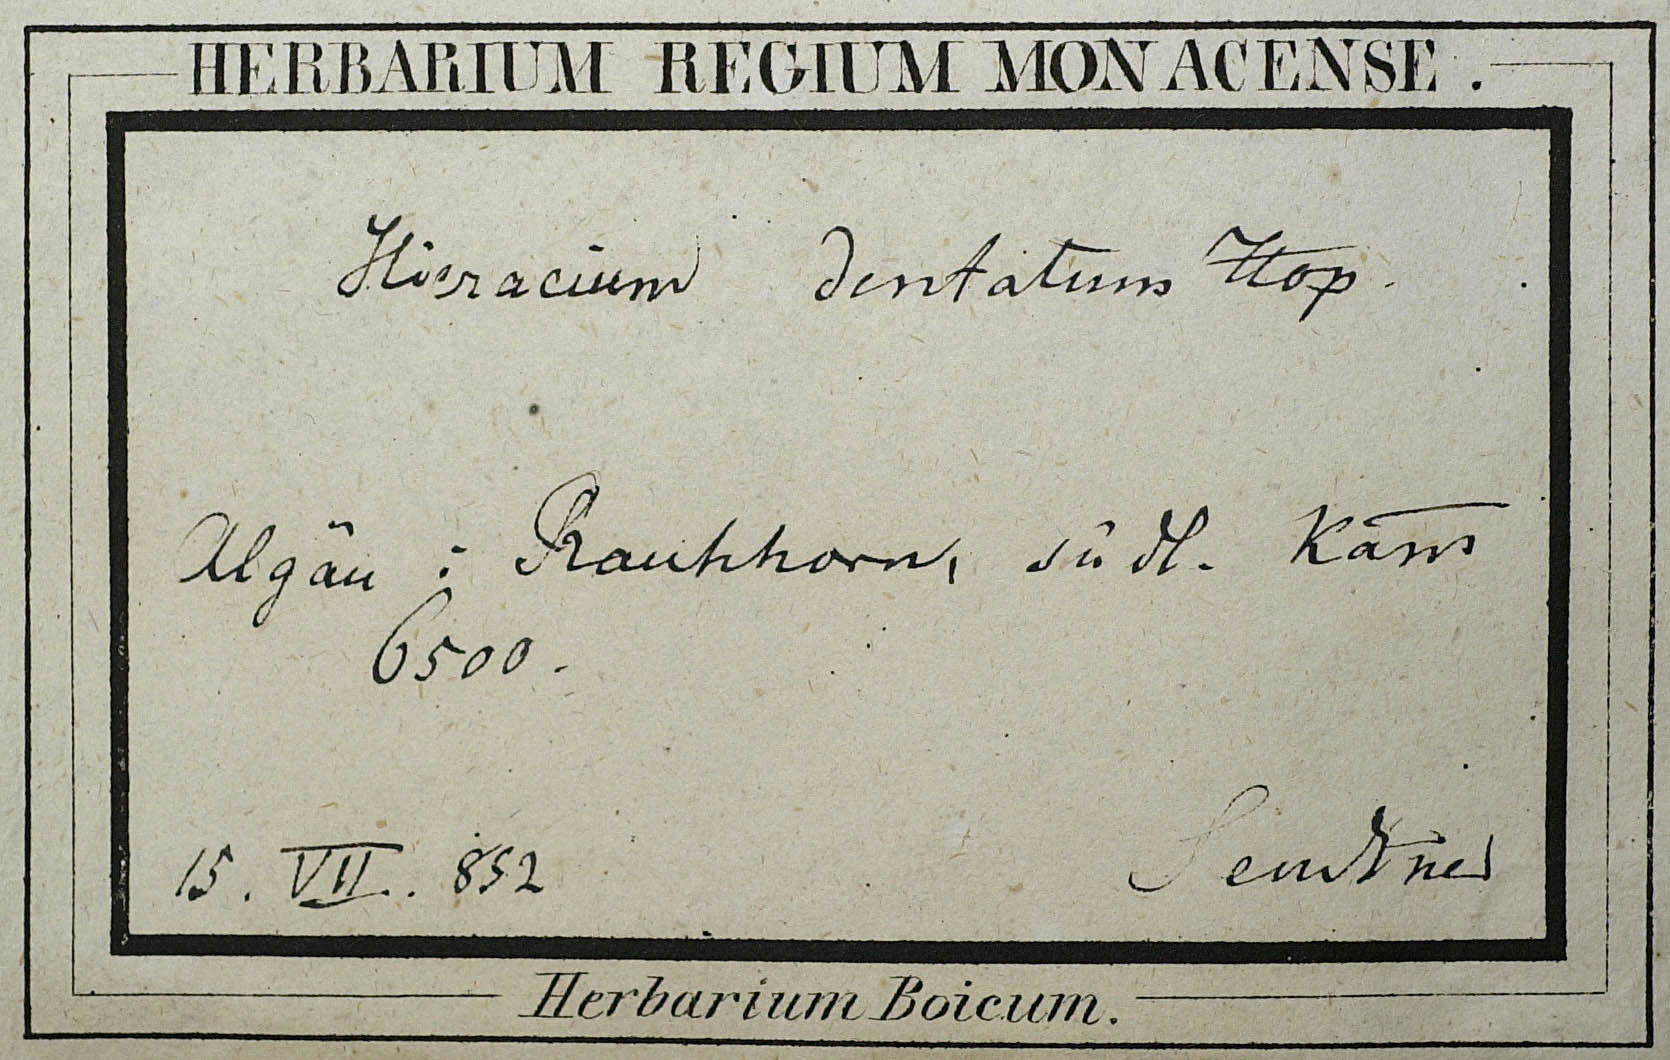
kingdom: Plantae
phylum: Tracheophyta
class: Magnoliopsida
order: Asterales
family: Asteraceae
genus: Hieracium
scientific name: Hieracium dentatum
